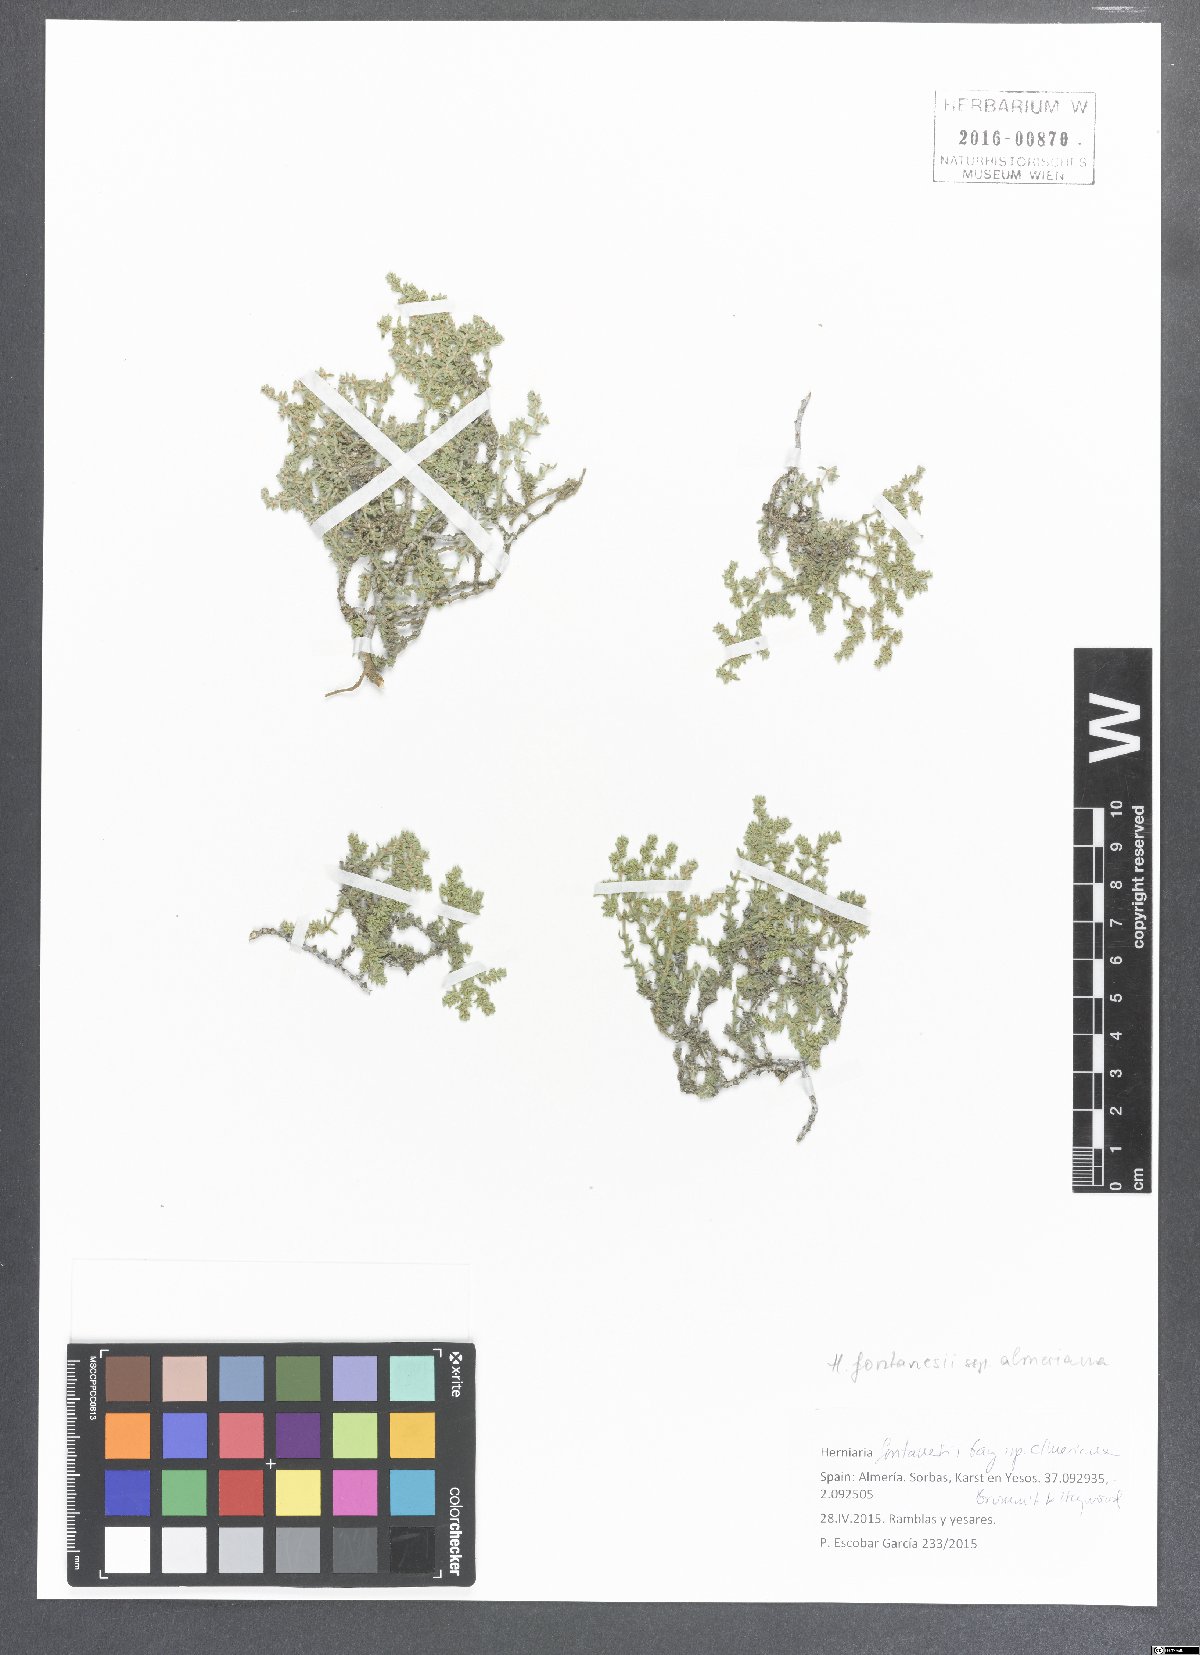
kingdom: Plantae
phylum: Tracheophyta
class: Magnoliopsida
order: Caryophyllales
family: Caryophyllaceae
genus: Herniaria
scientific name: Herniaria fontanesii
